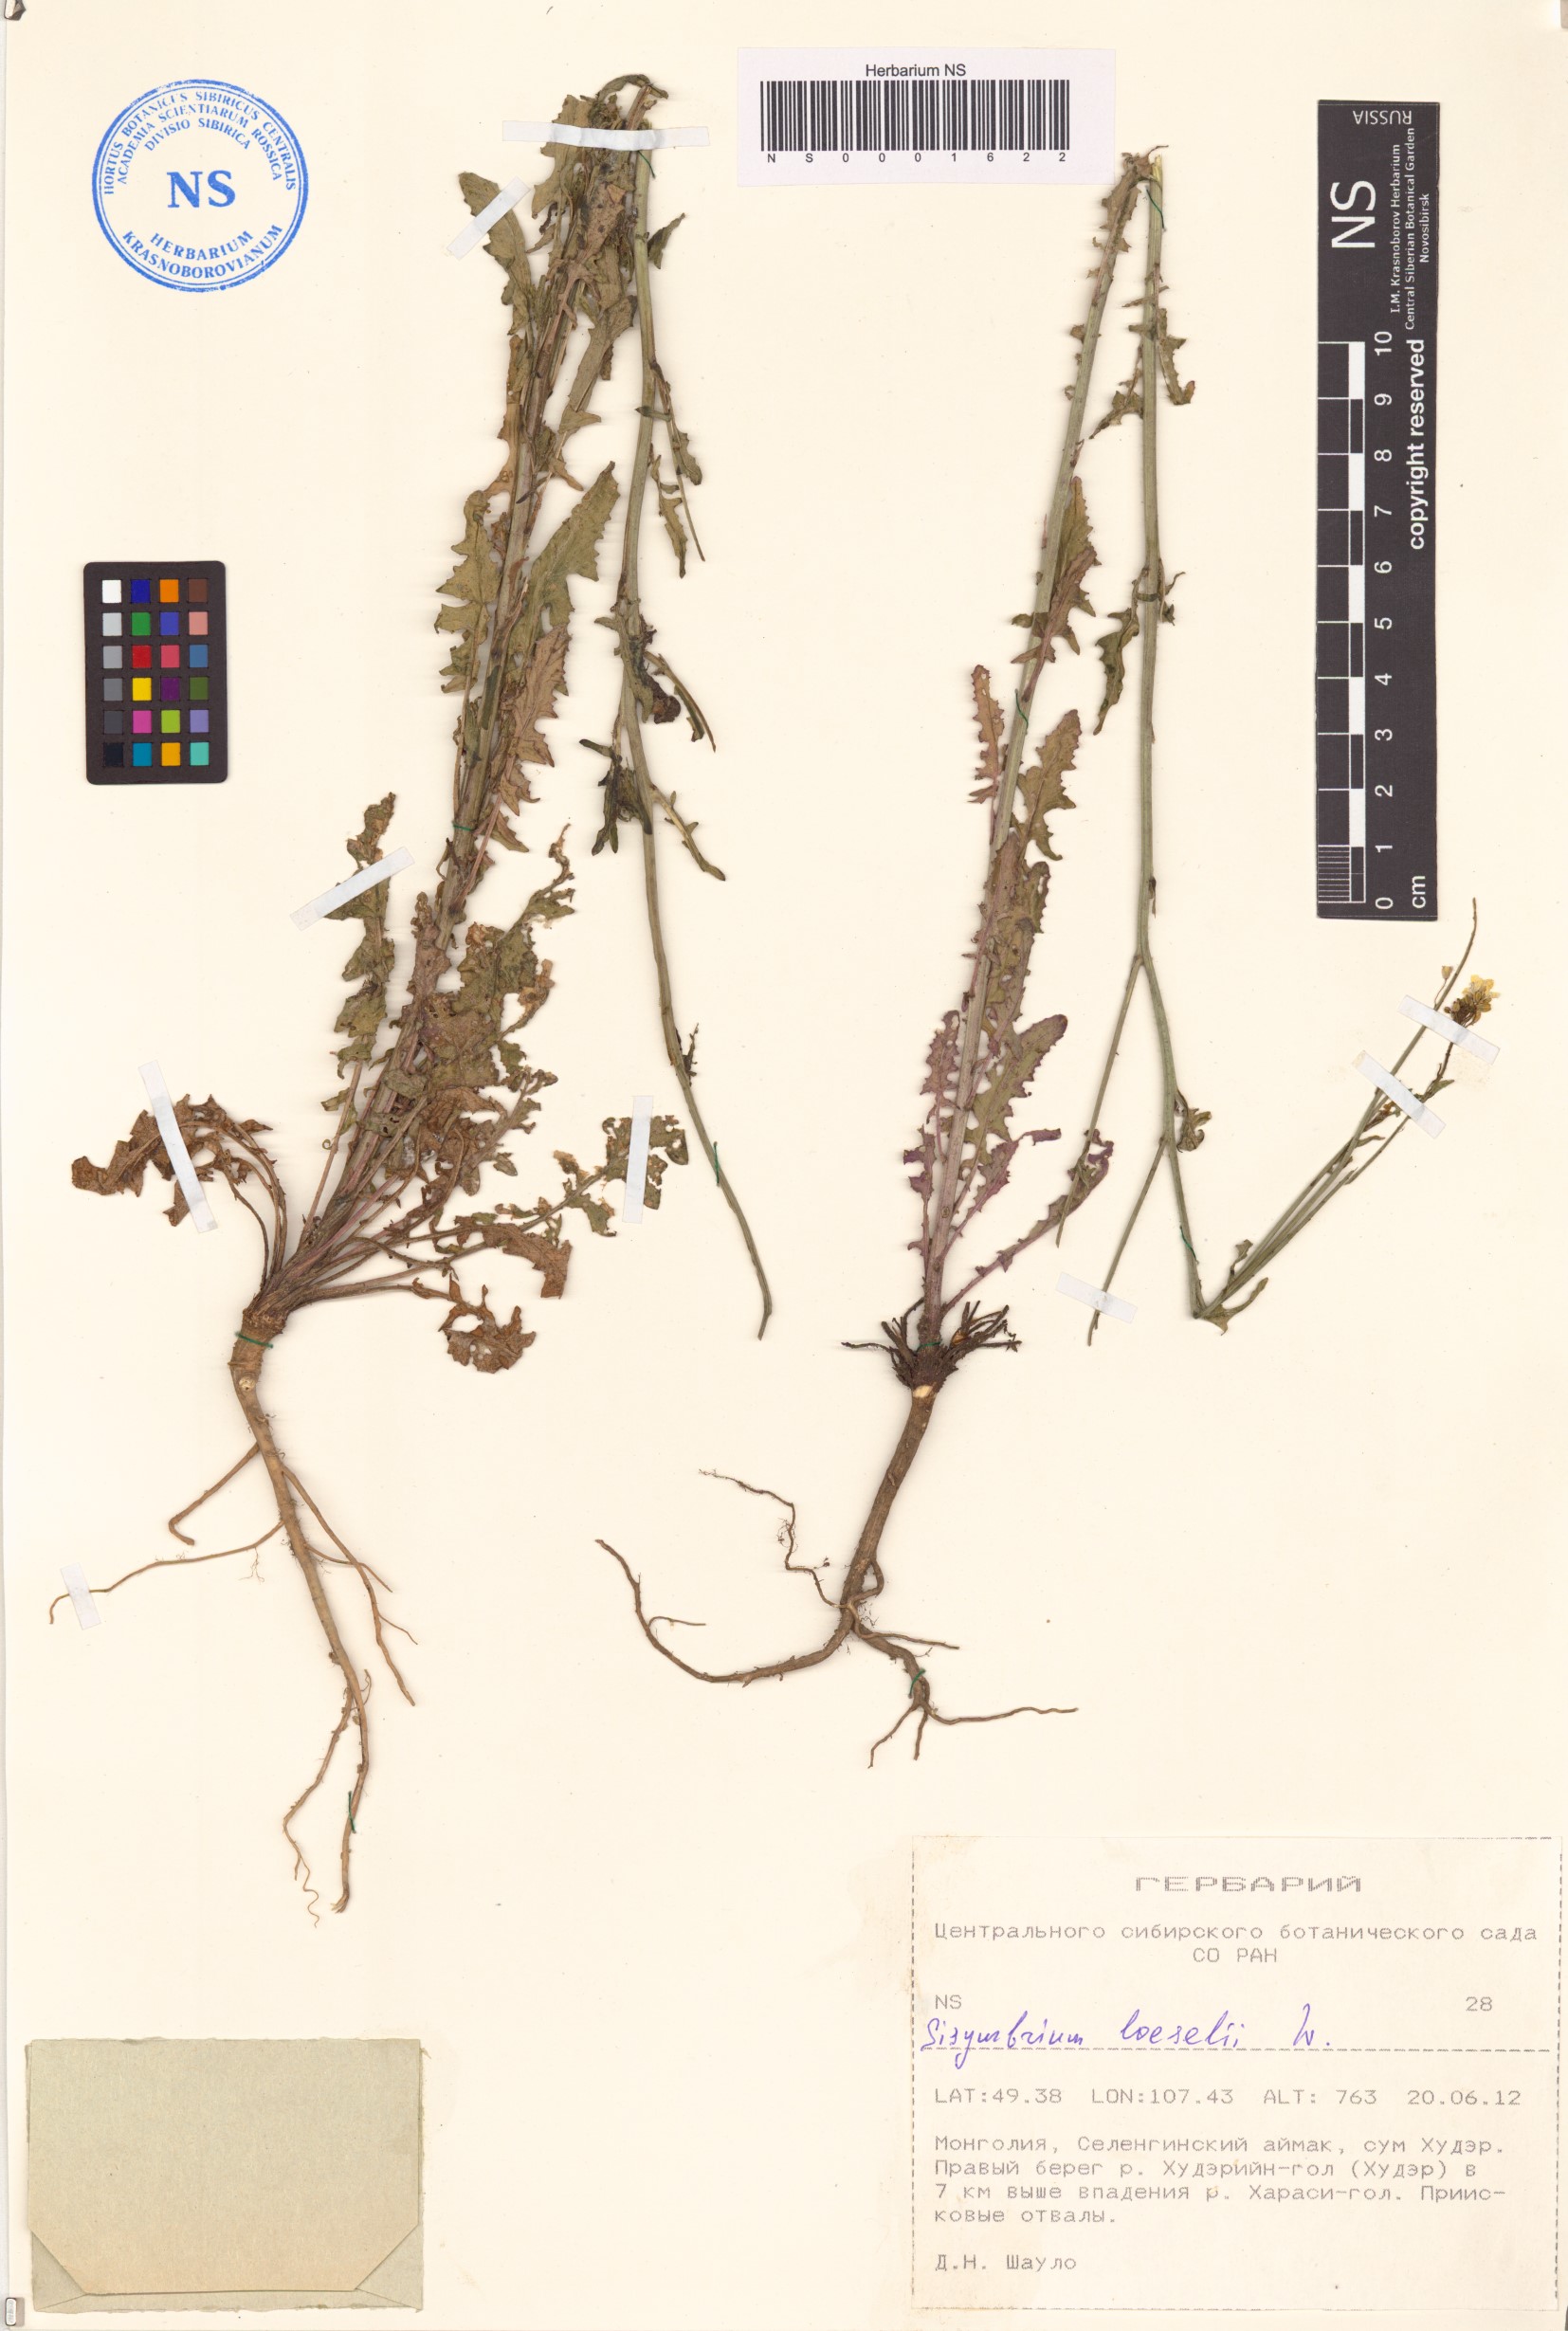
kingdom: Plantae
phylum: Tracheophyta
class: Magnoliopsida
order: Brassicales
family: Brassicaceae
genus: Sisymbrium
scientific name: Sisymbrium loeselii
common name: False london-rocket
